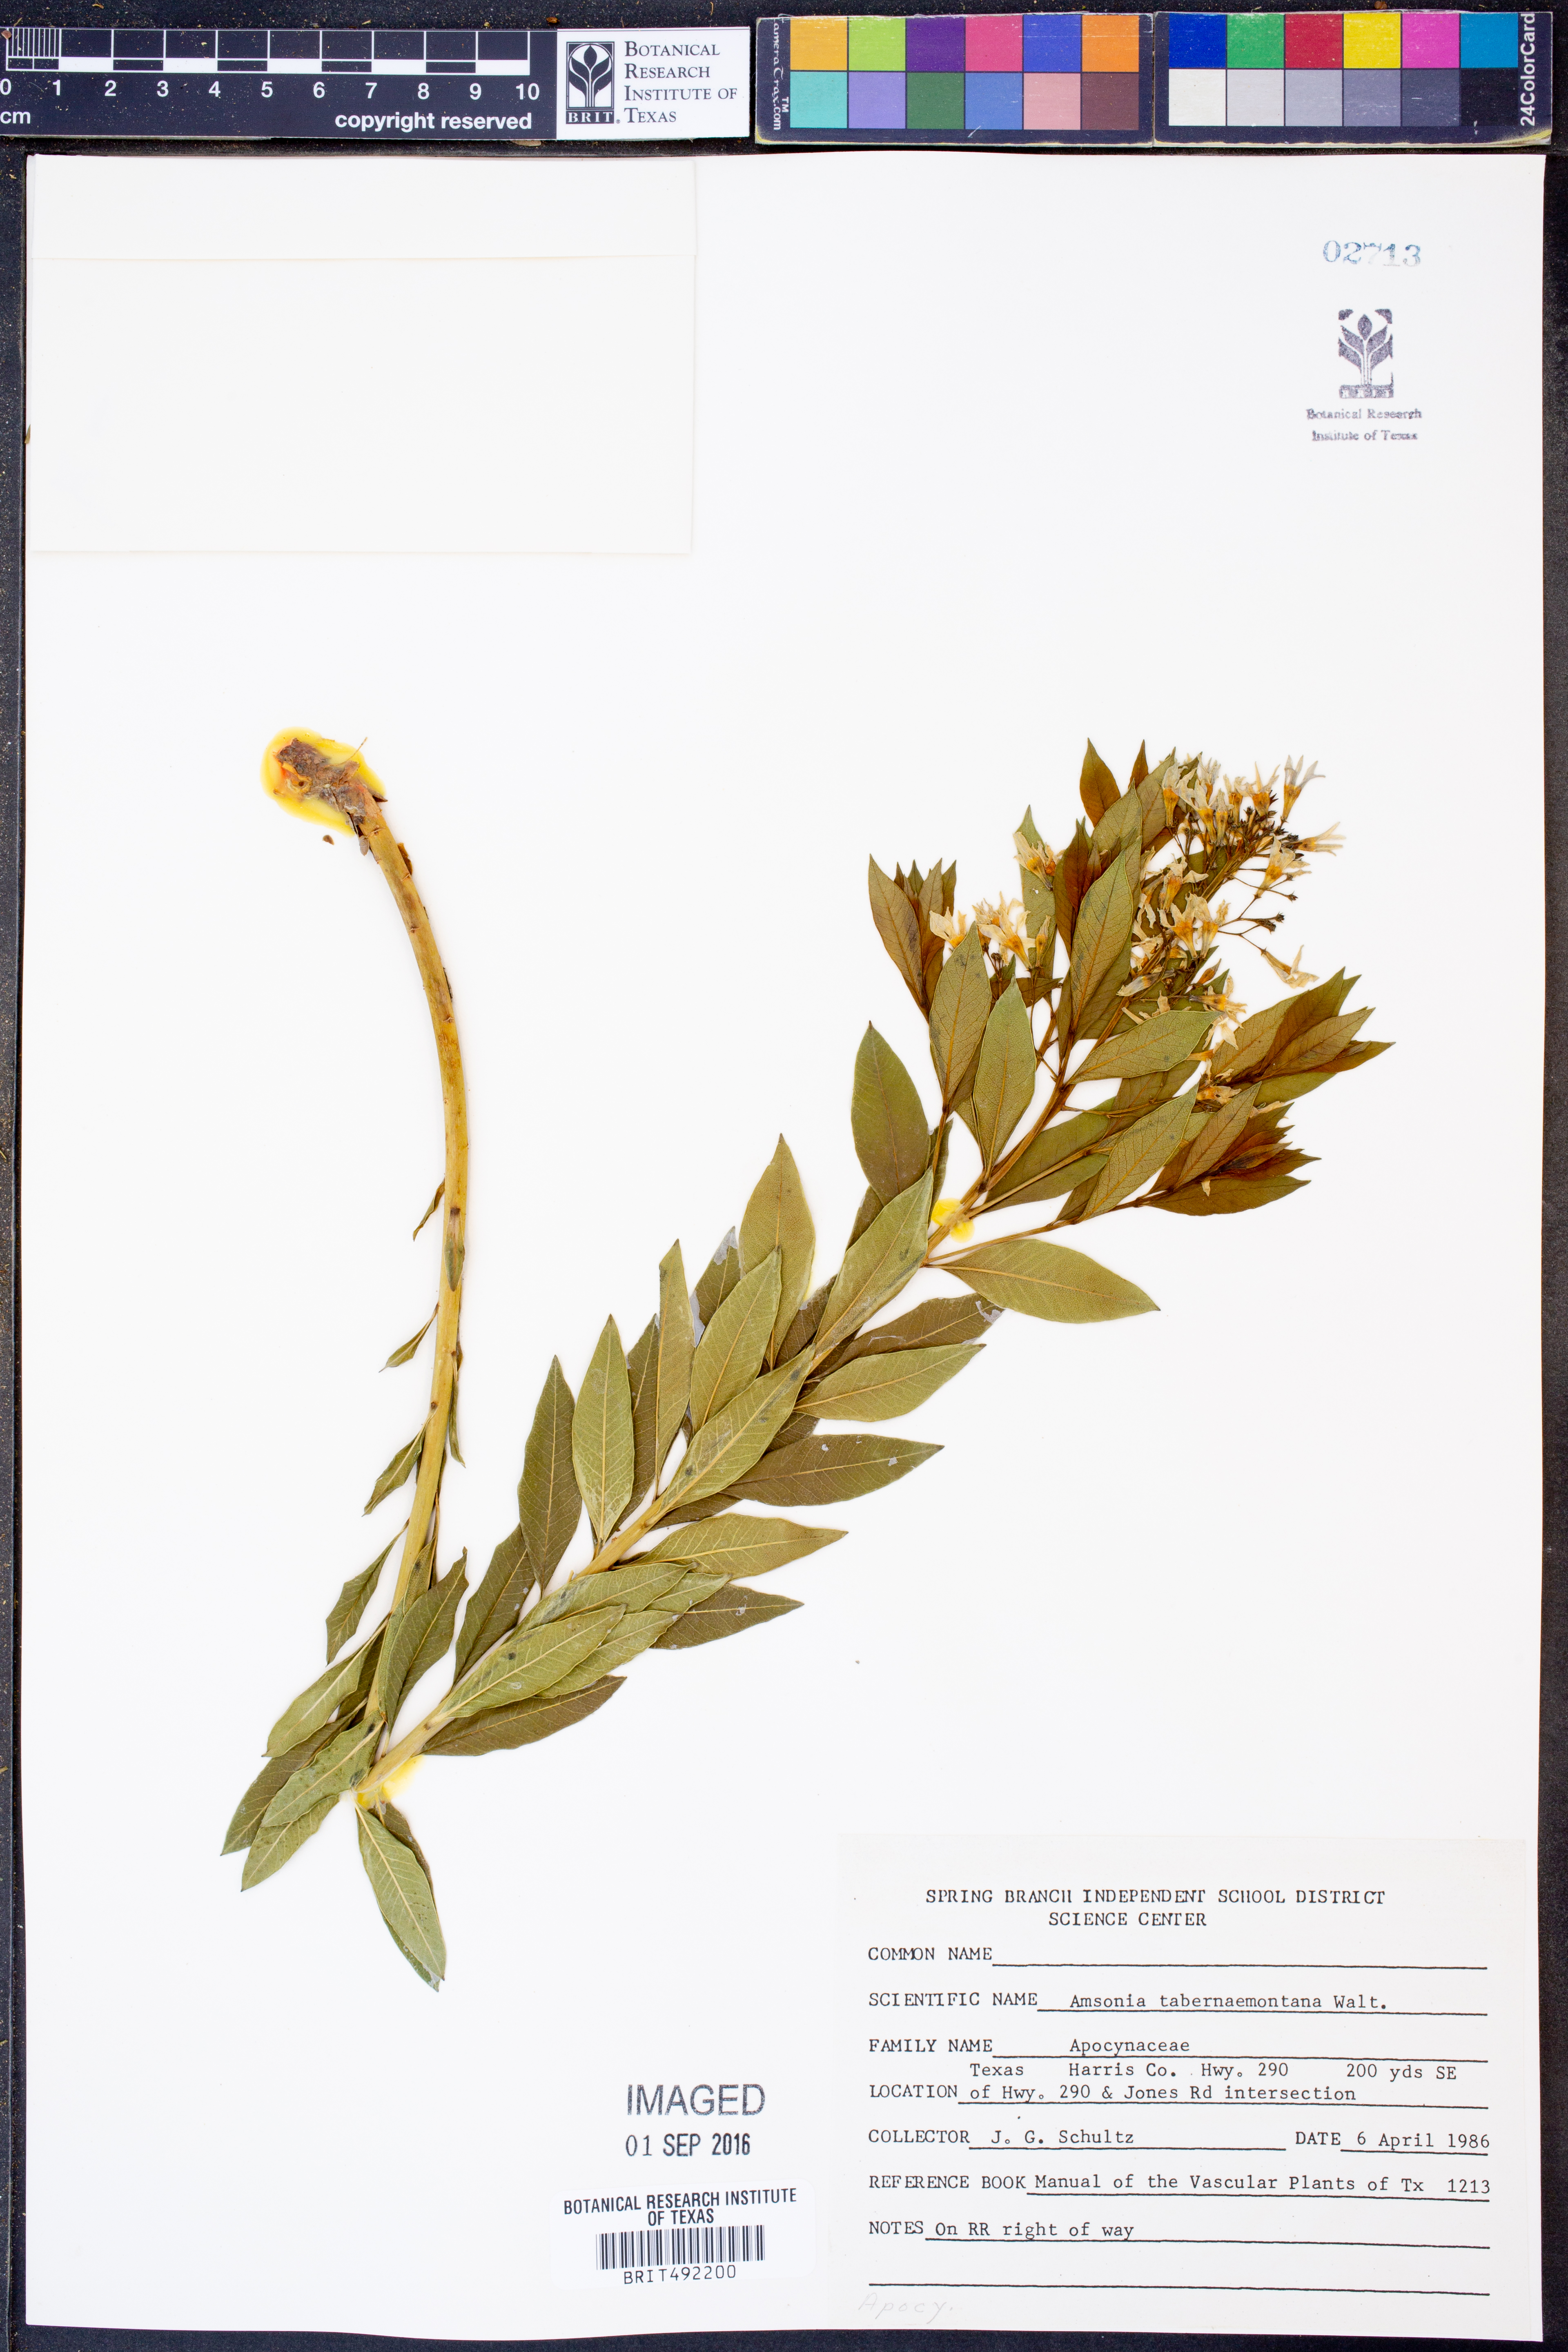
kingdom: Plantae
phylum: Tracheophyta
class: Magnoliopsida
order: Gentianales
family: Apocynaceae
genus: Amsonia
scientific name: Amsonia tabernaemontana
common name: Texas-star
